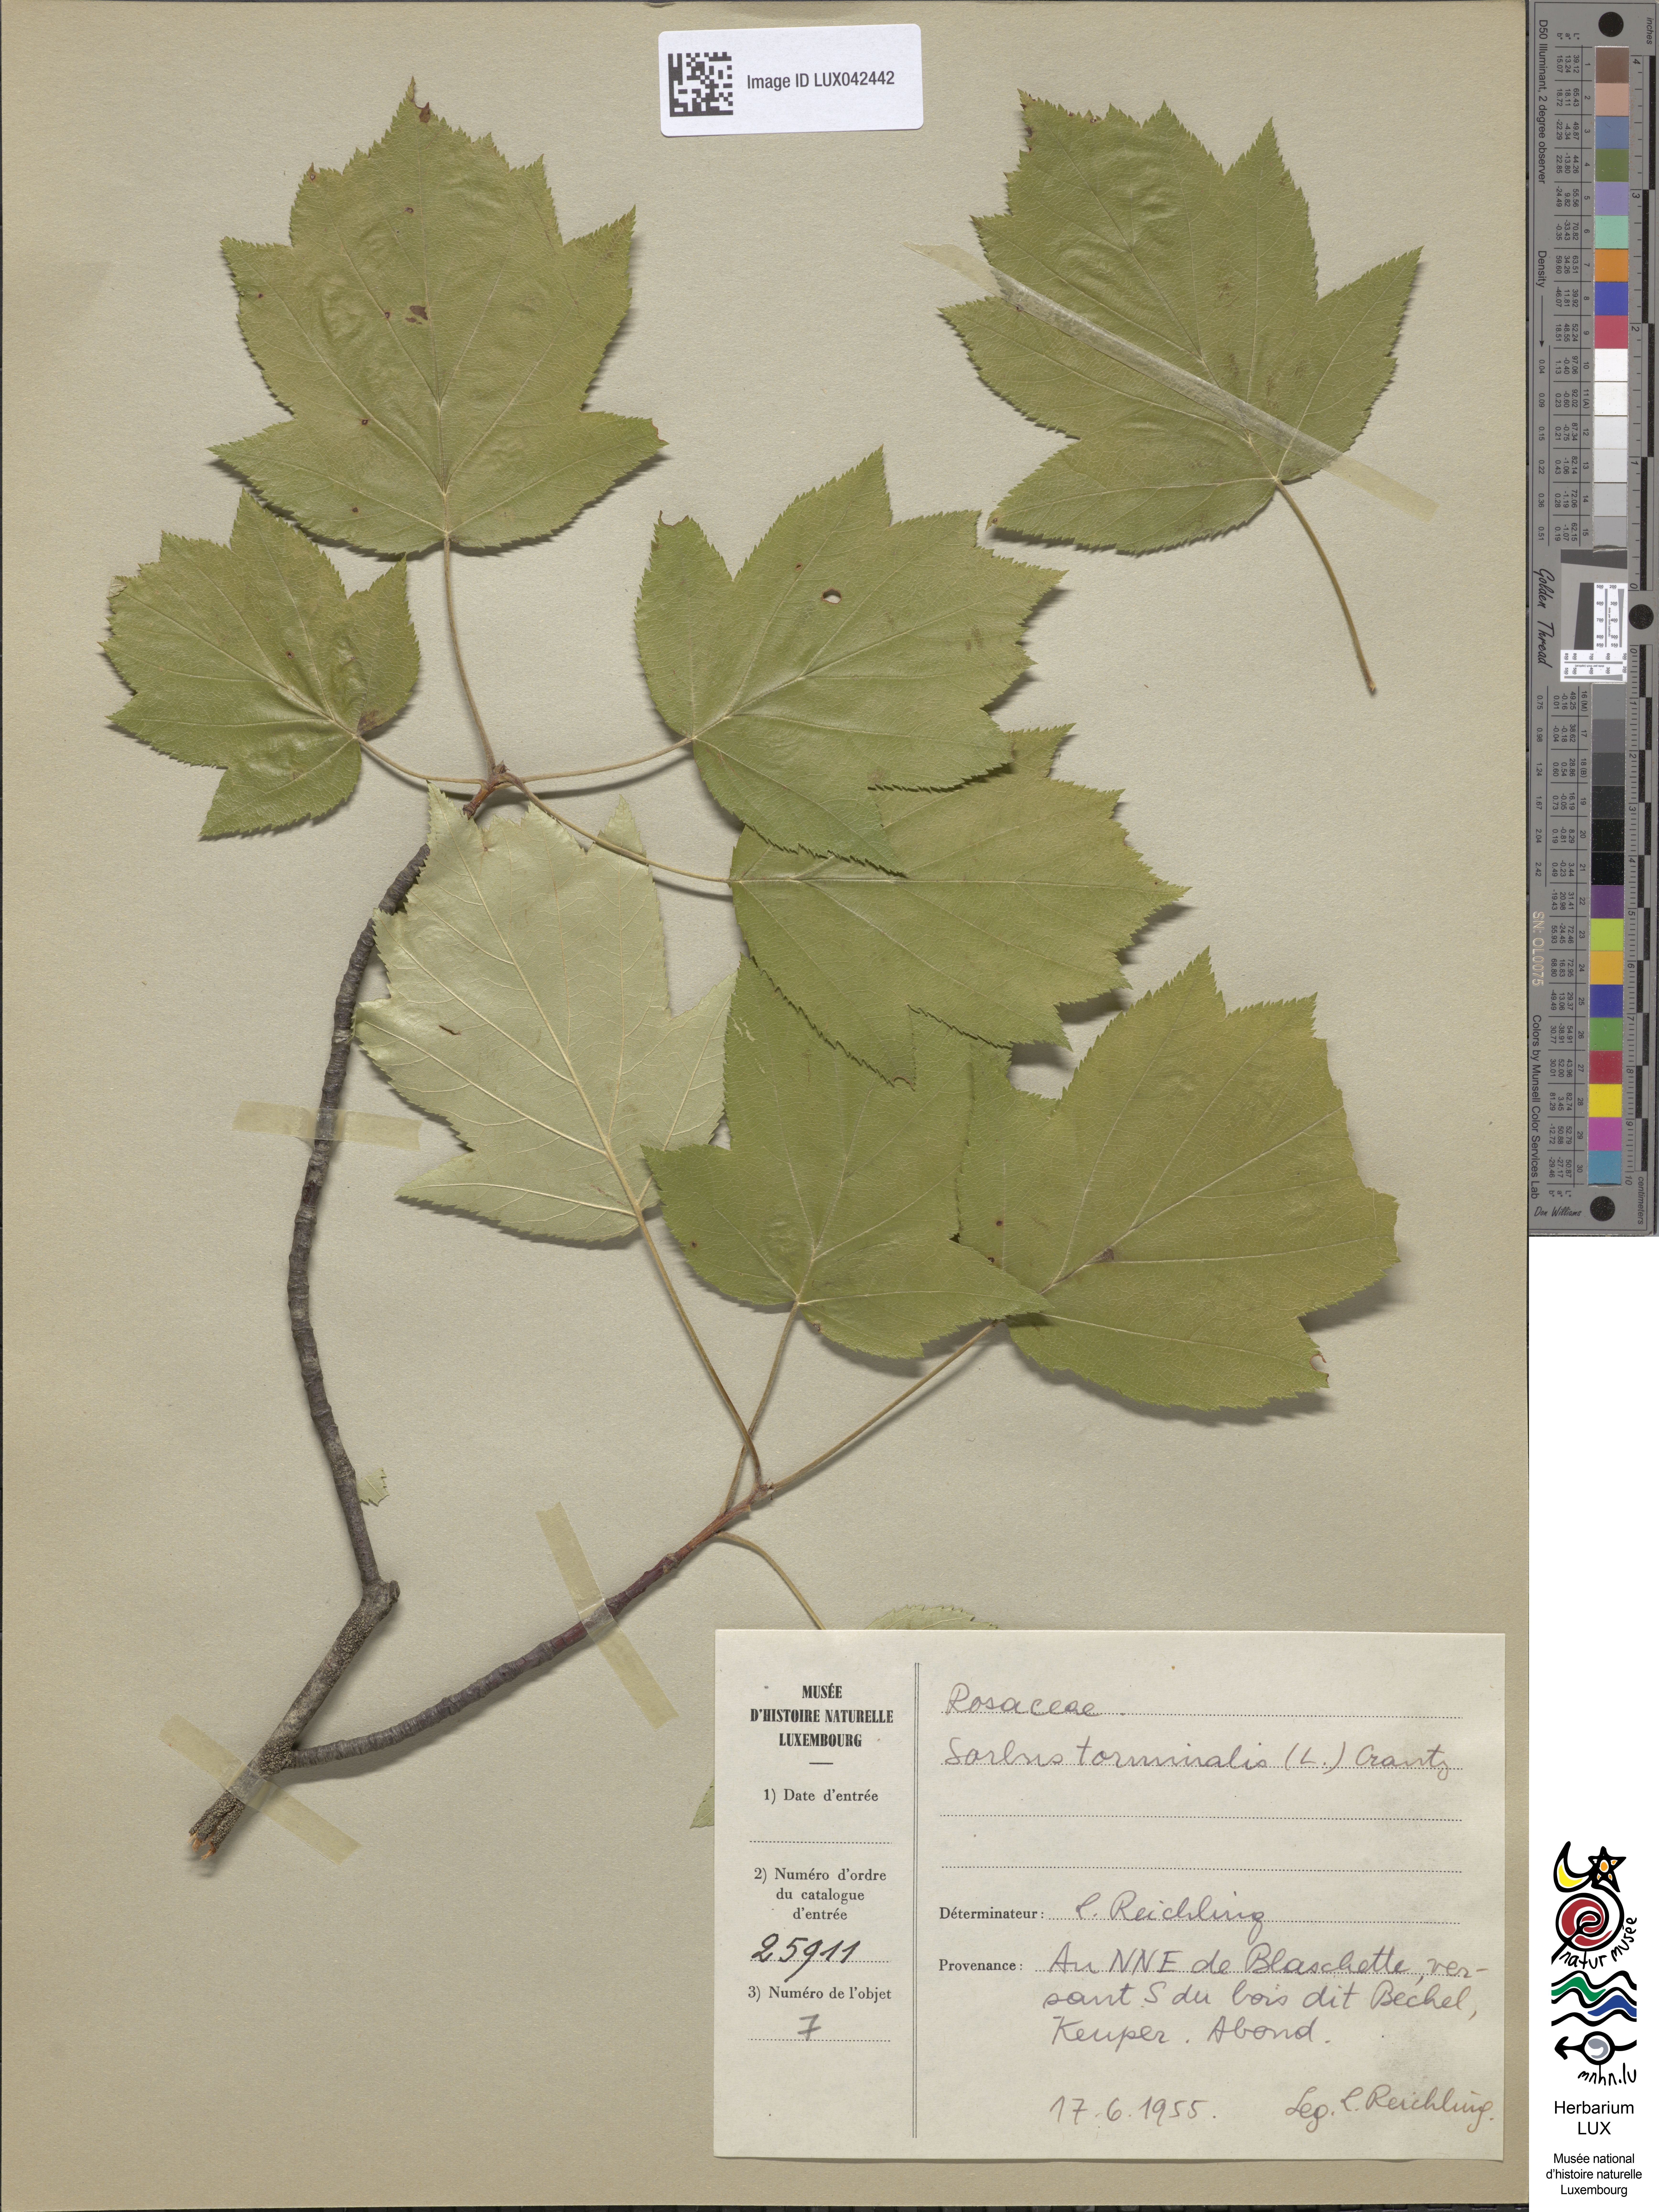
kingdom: Plantae
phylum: Tracheophyta
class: Magnoliopsida
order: Rosales
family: Rosaceae
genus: Torminalis
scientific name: Torminalis glaberrima
